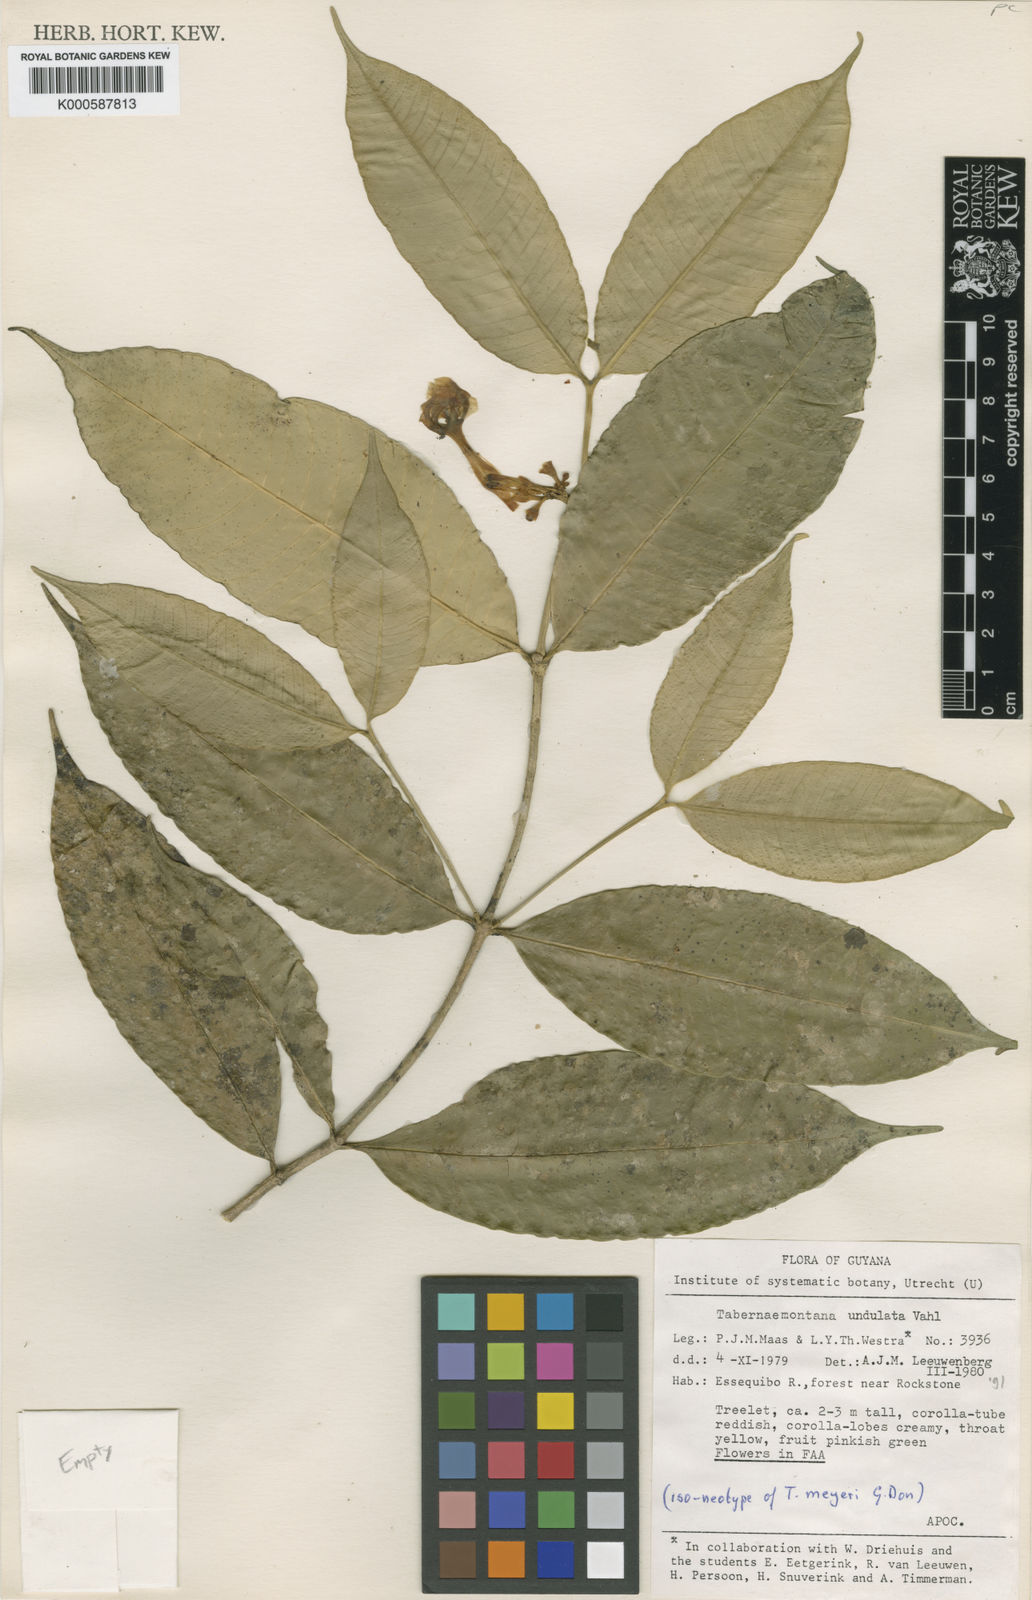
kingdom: Plantae
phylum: Tracheophyta
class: Magnoliopsida
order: Gentianales
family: Apocynaceae
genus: Tabernaemontana
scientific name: Tabernaemontana undulata
